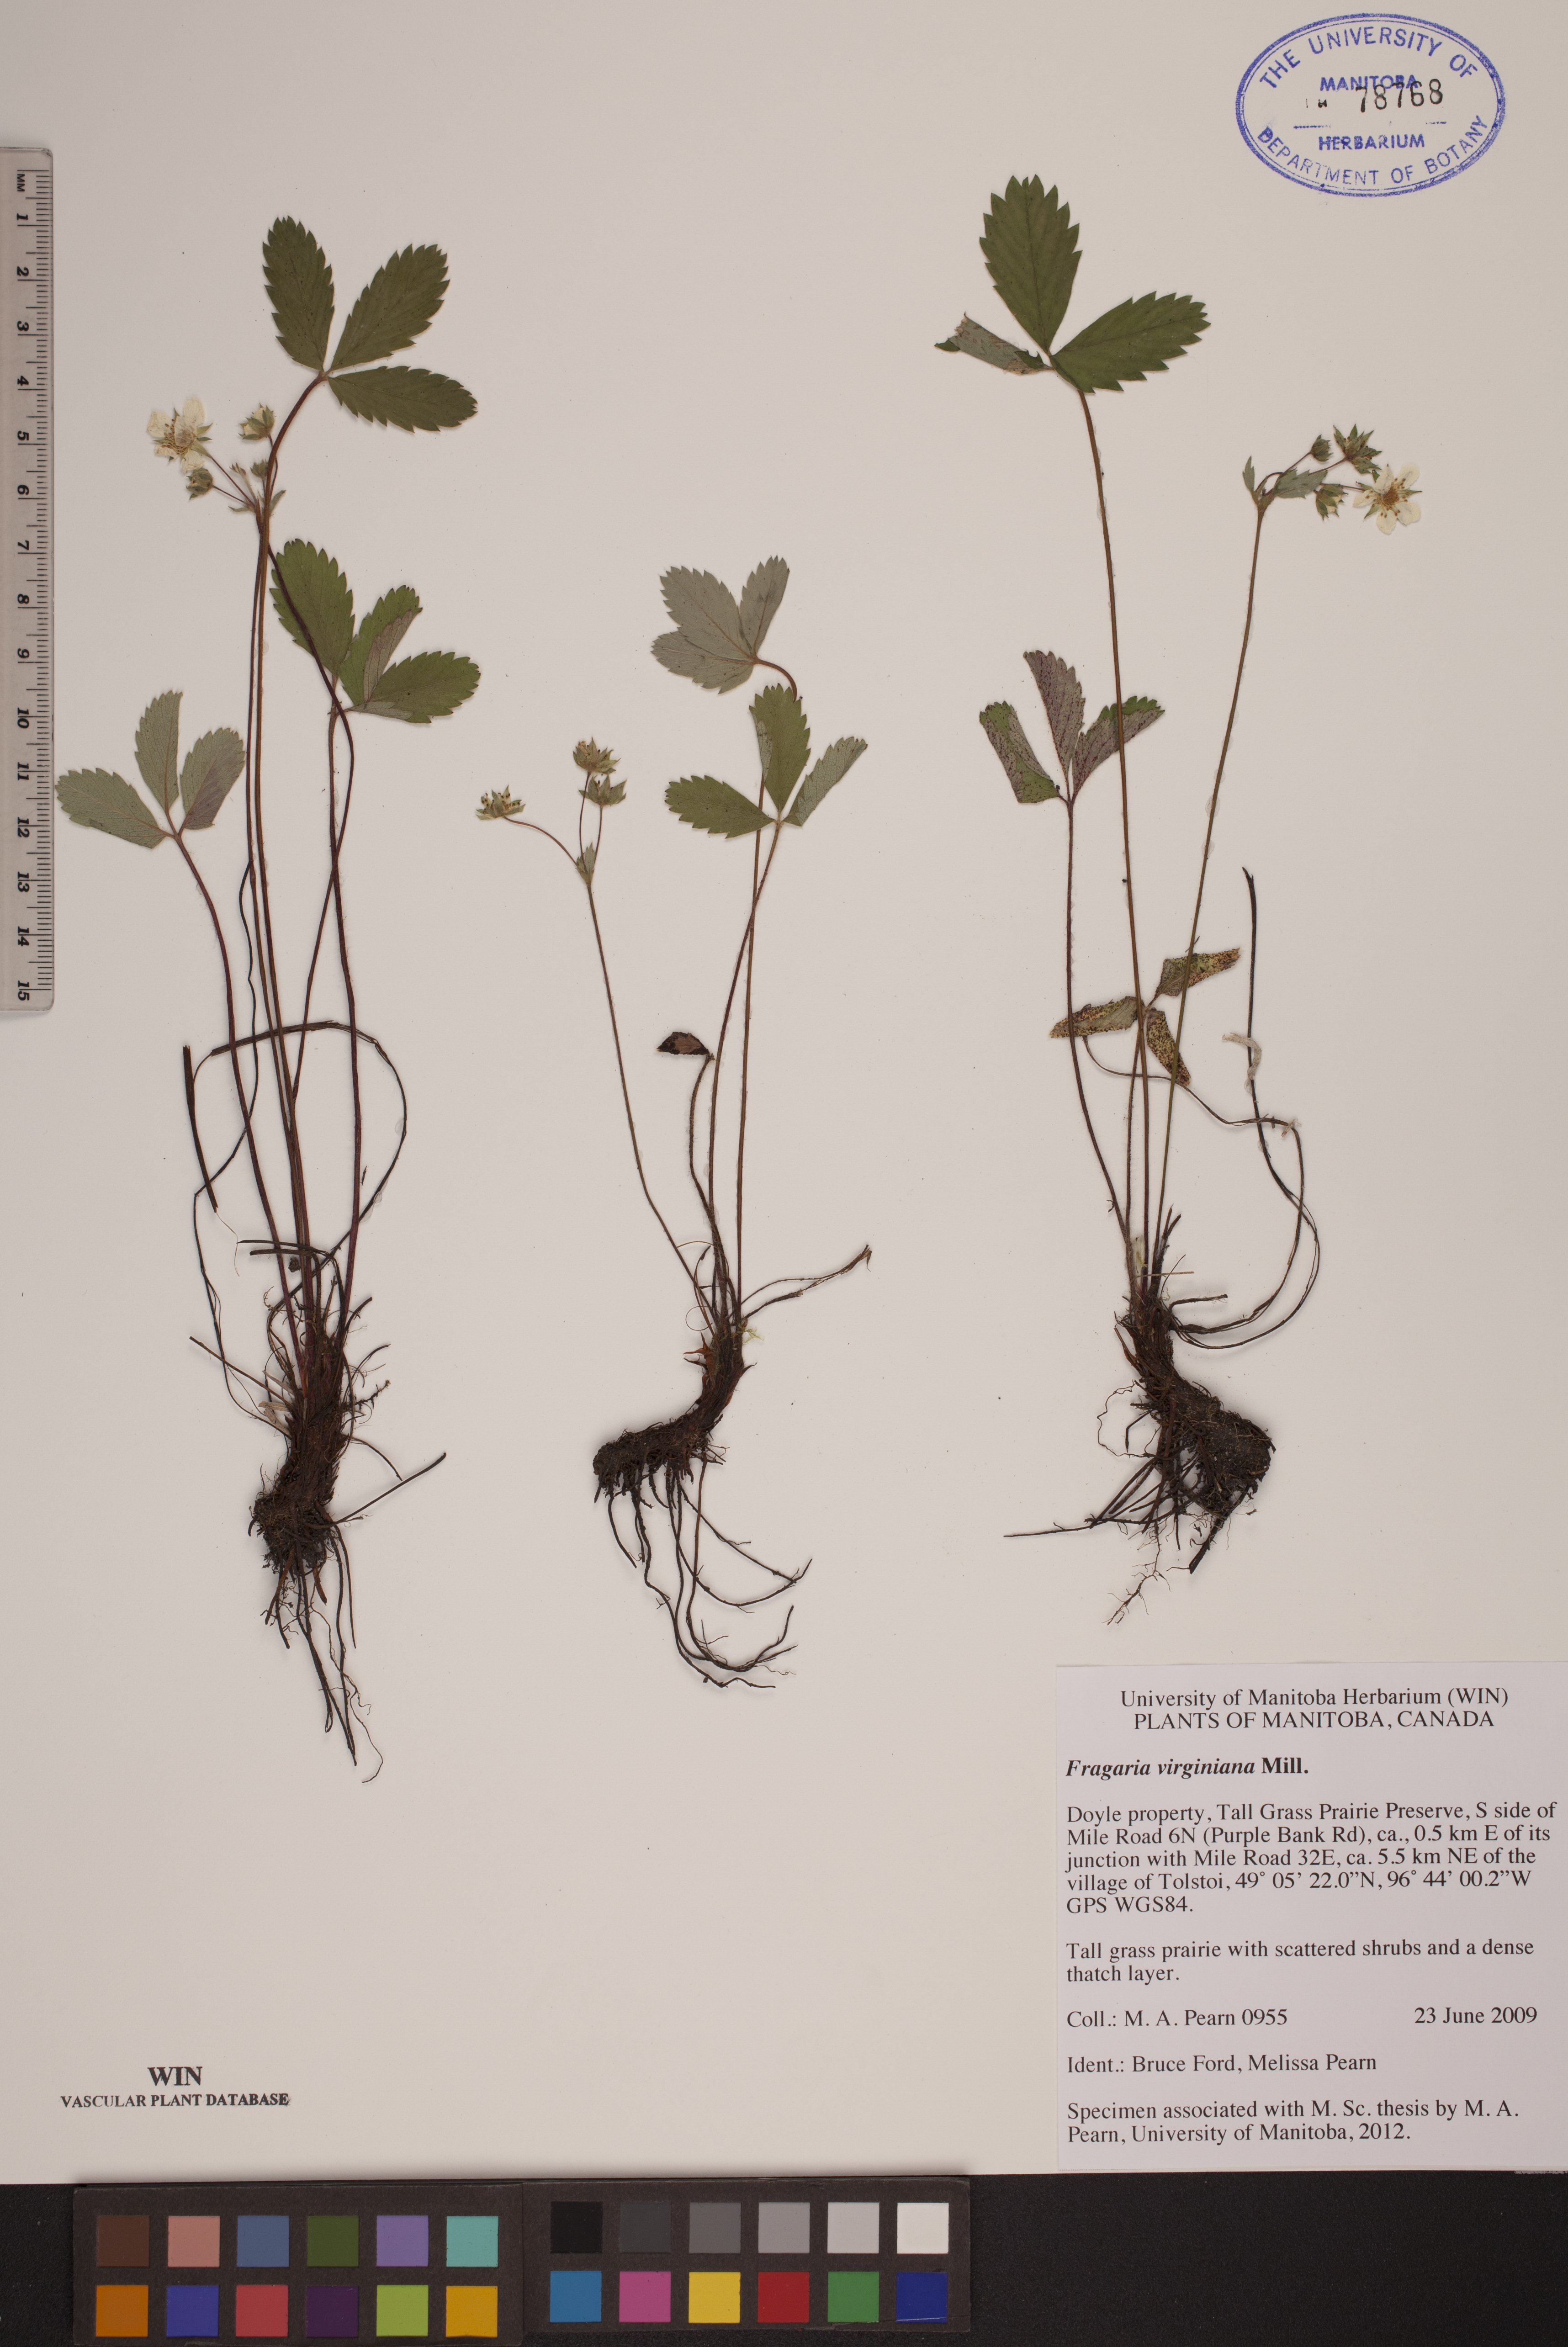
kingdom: Plantae
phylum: Tracheophyta
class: Magnoliopsida
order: Rosales
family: Rosaceae
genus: Fragaria
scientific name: Fragaria virginiana
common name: Thickleaved wild strawberry
